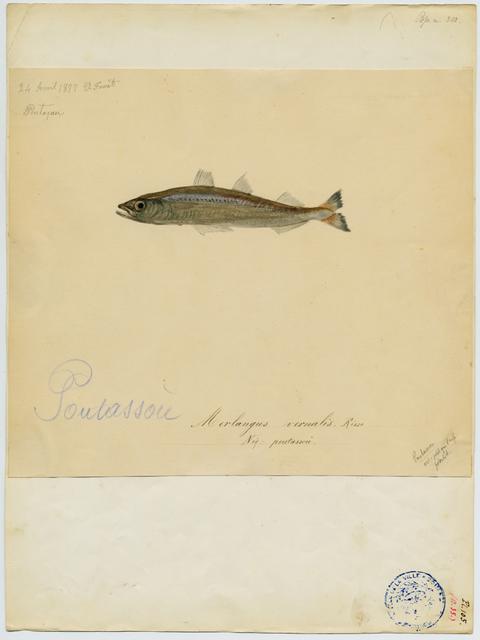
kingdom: Animalia
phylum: Chordata
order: Gadiformes
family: Gadidae
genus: Micromesistius
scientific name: Micromesistius poutassou
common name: Blue whiting
